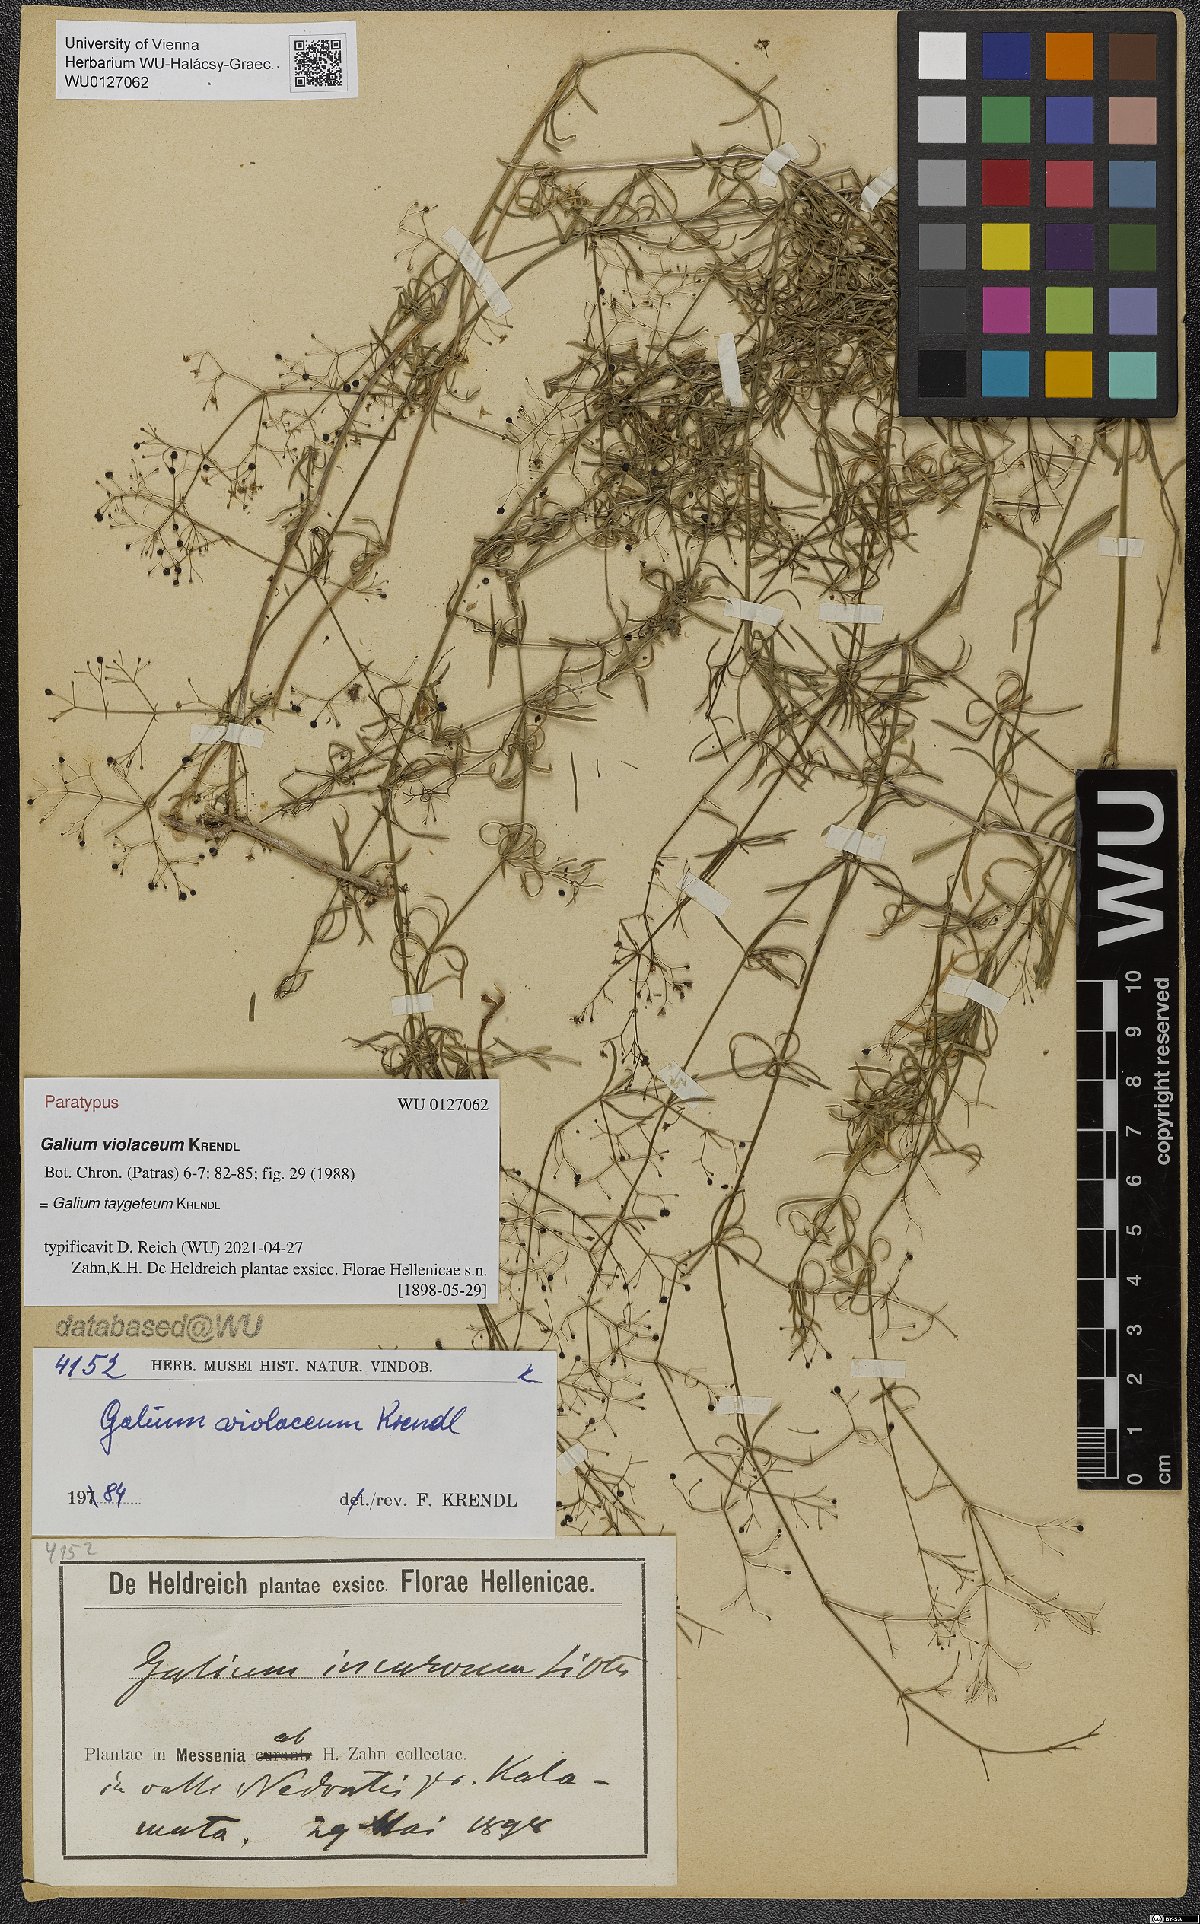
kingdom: Plantae
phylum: Tracheophyta
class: Magnoliopsida
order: Gentianales
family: Rubiaceae
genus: Galium
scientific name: Galium taygeteum
